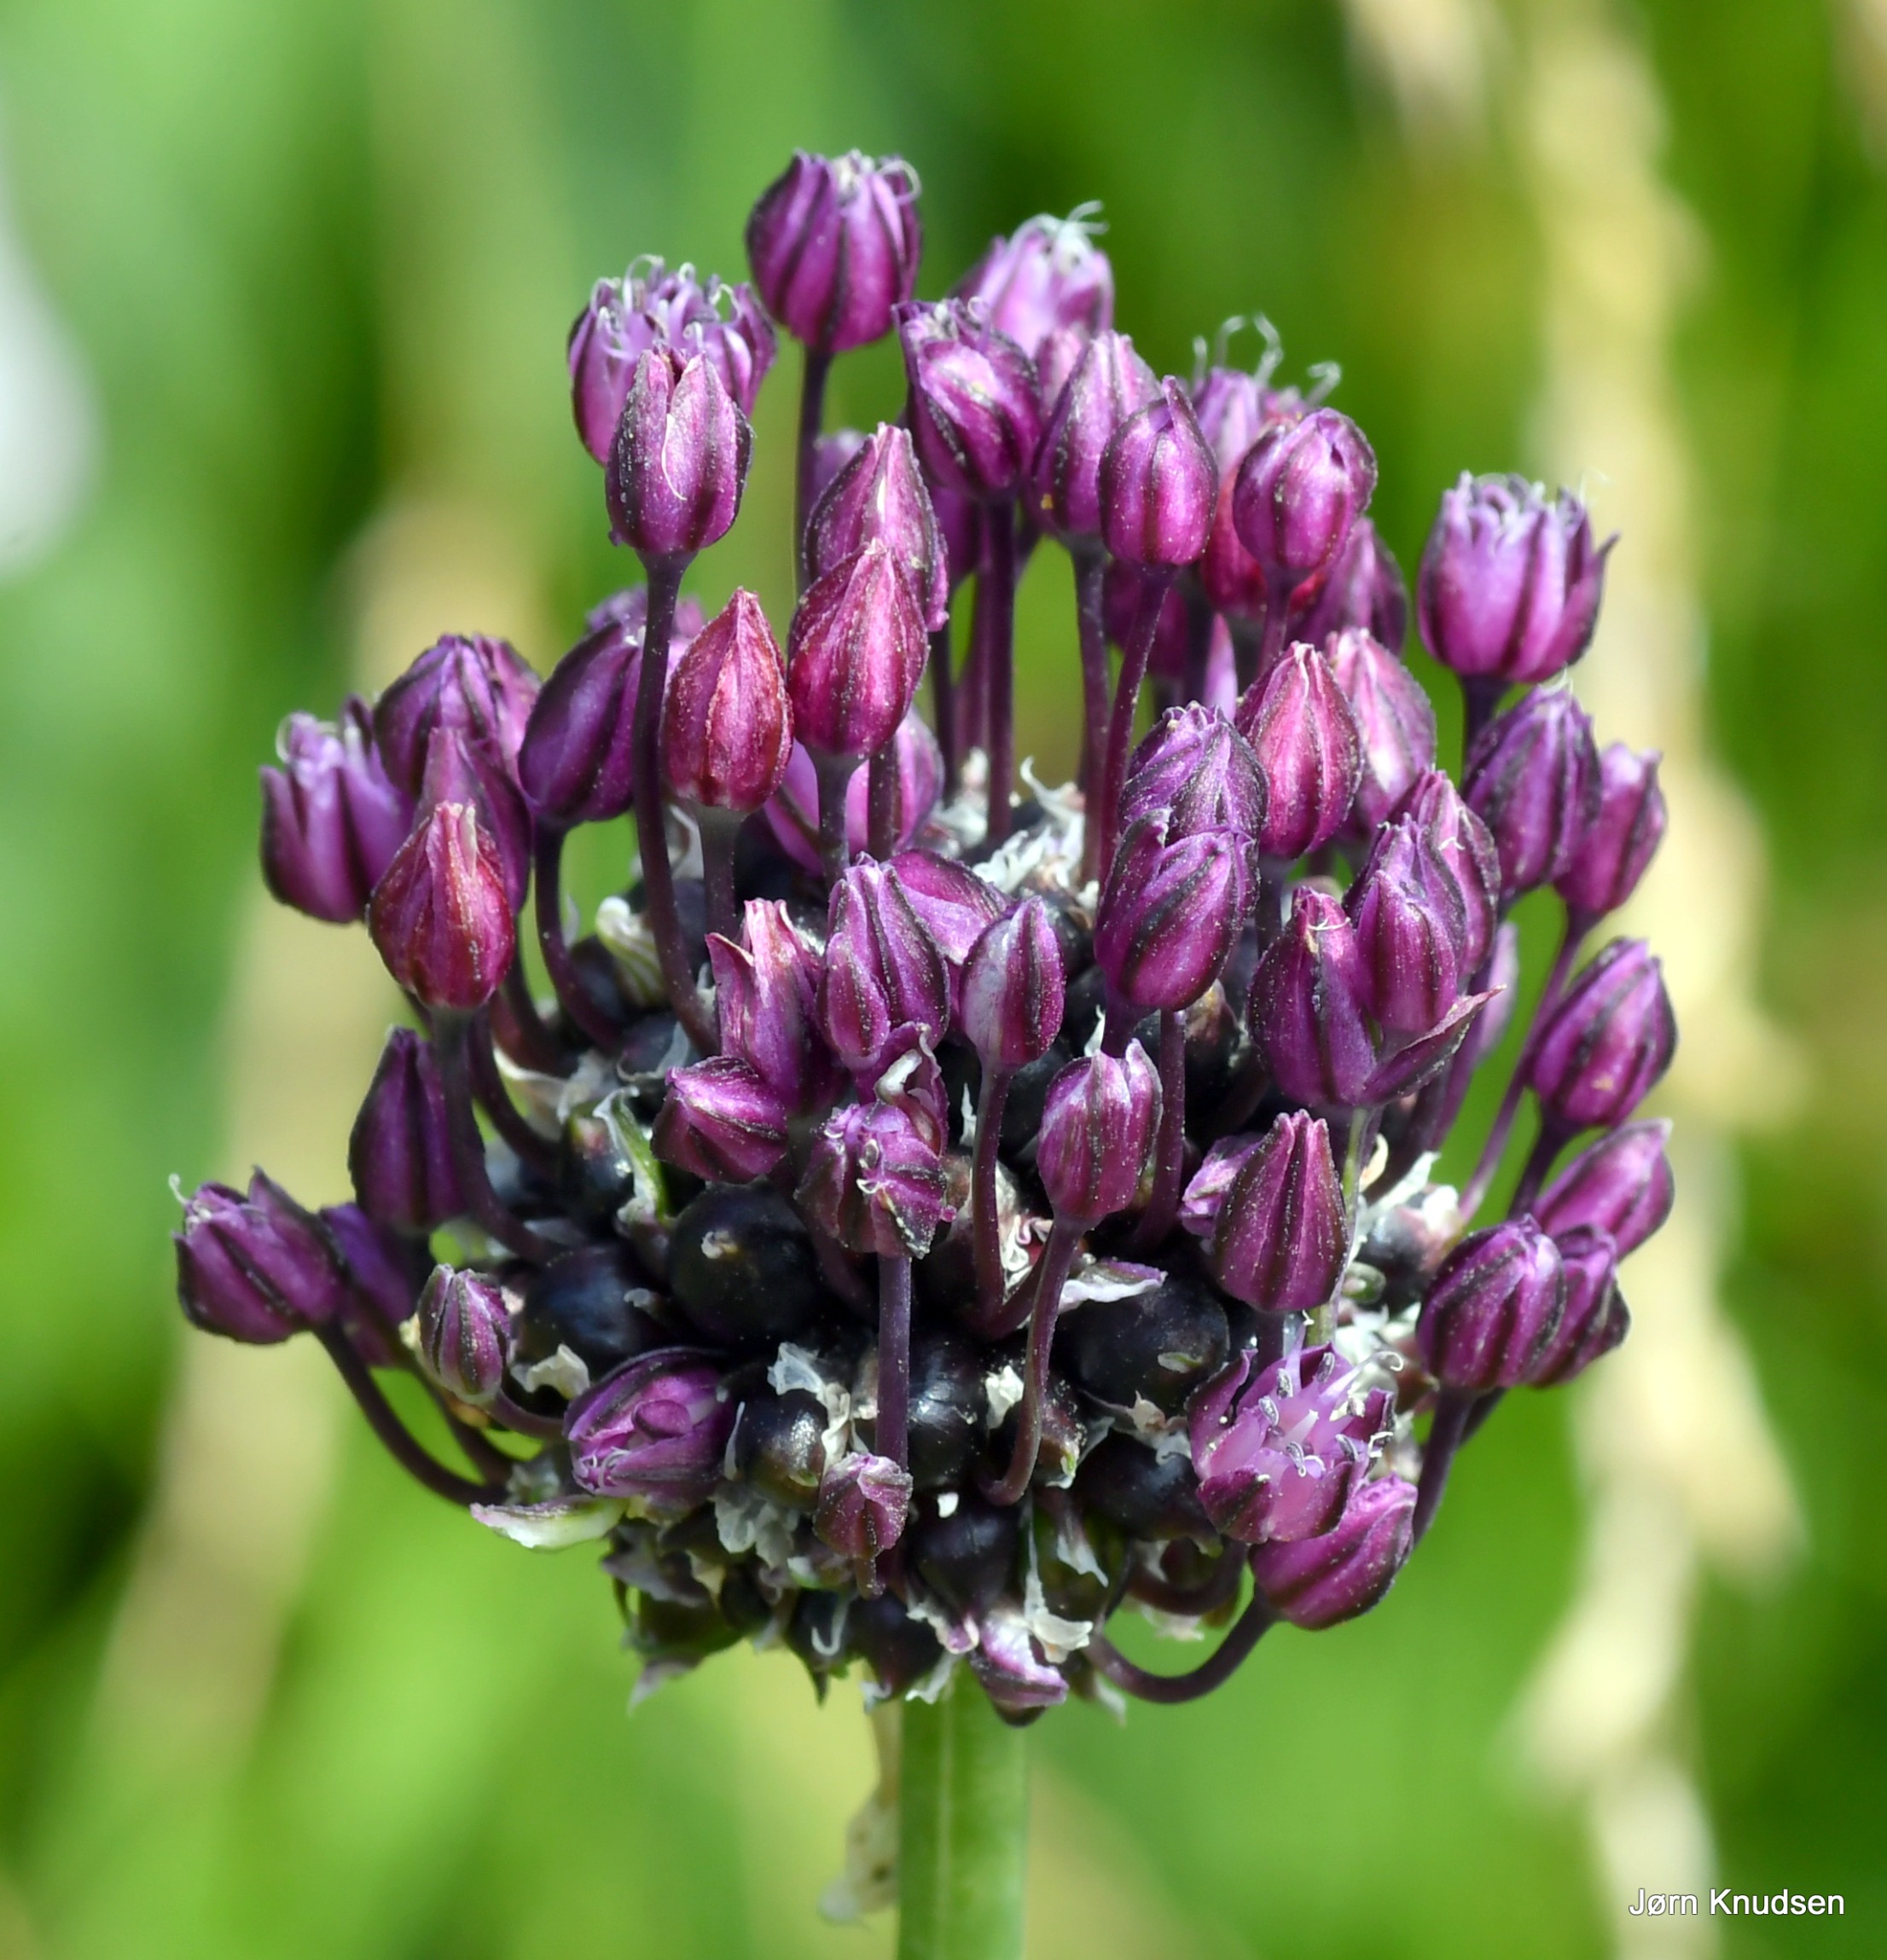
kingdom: Plantae
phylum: Tracheophyta
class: Liliopsida
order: Asparagales
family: Amaryllidaceae
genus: Allium
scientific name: Allium scorodoprasum
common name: Skov-løg
